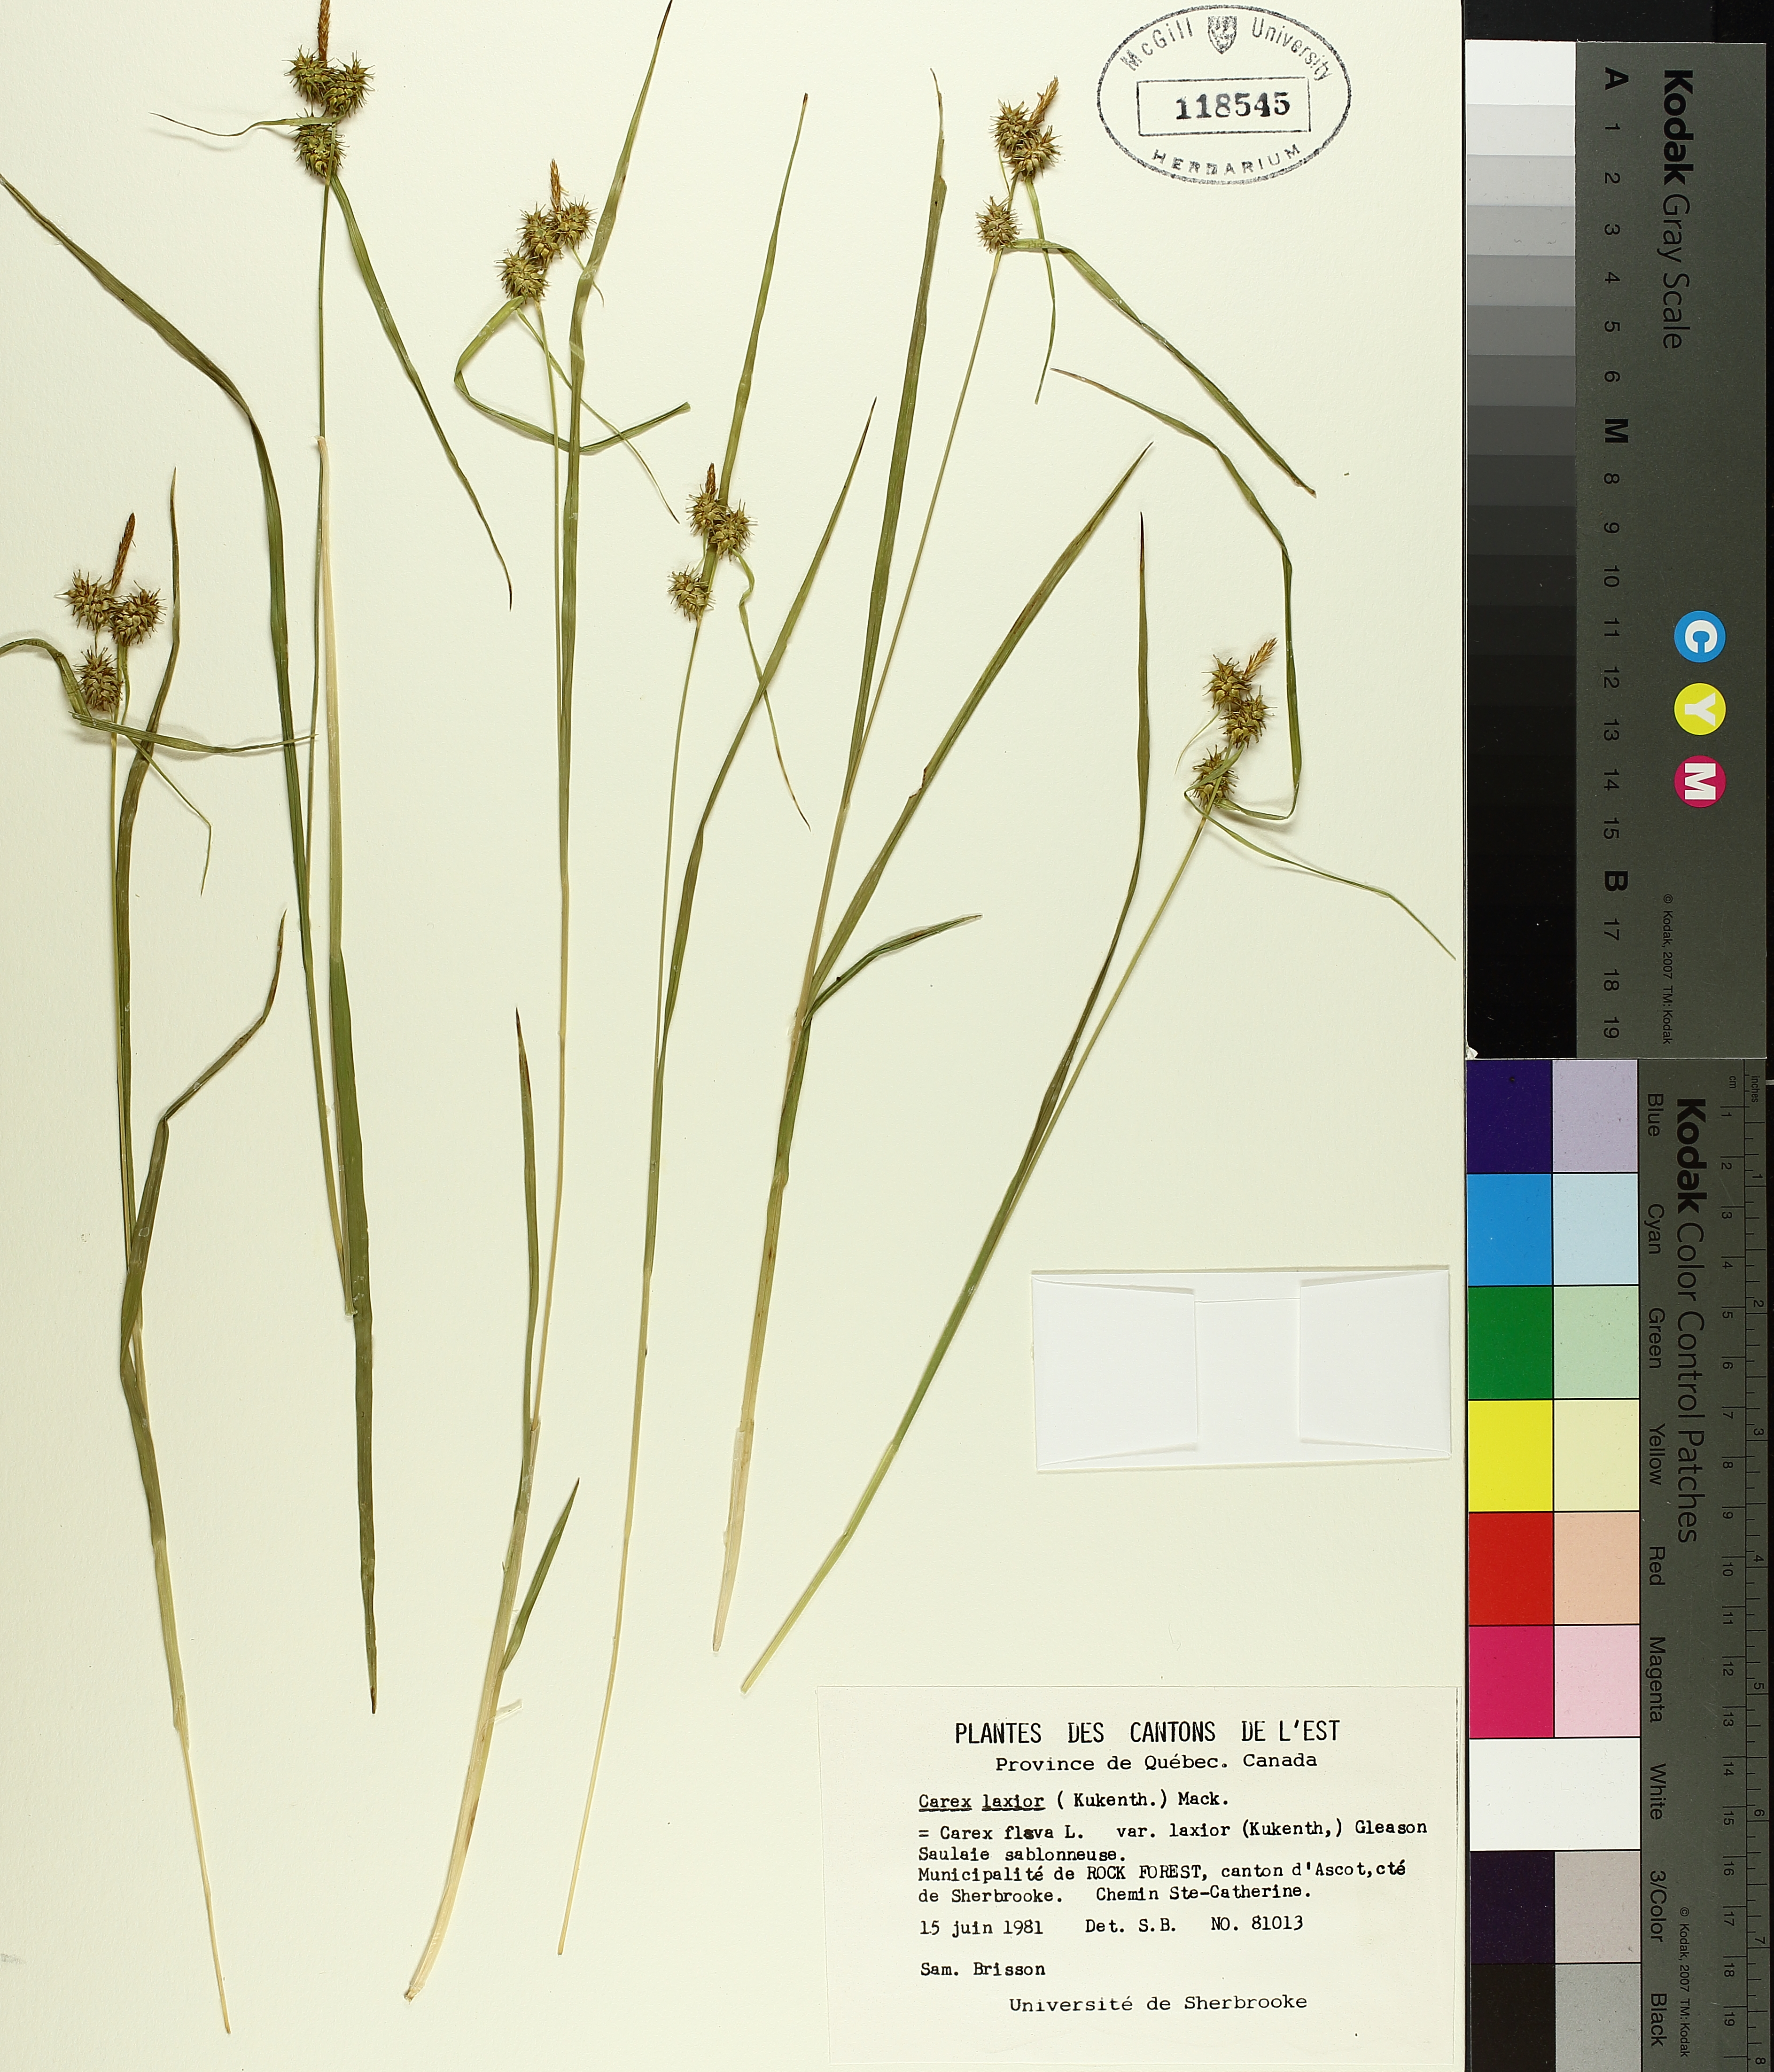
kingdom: Plantae
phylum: Tracheophyta
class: Liliopsida
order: Poales
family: Cyperaceae
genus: Carex
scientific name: Carex flava
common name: Large yellow-sedge
